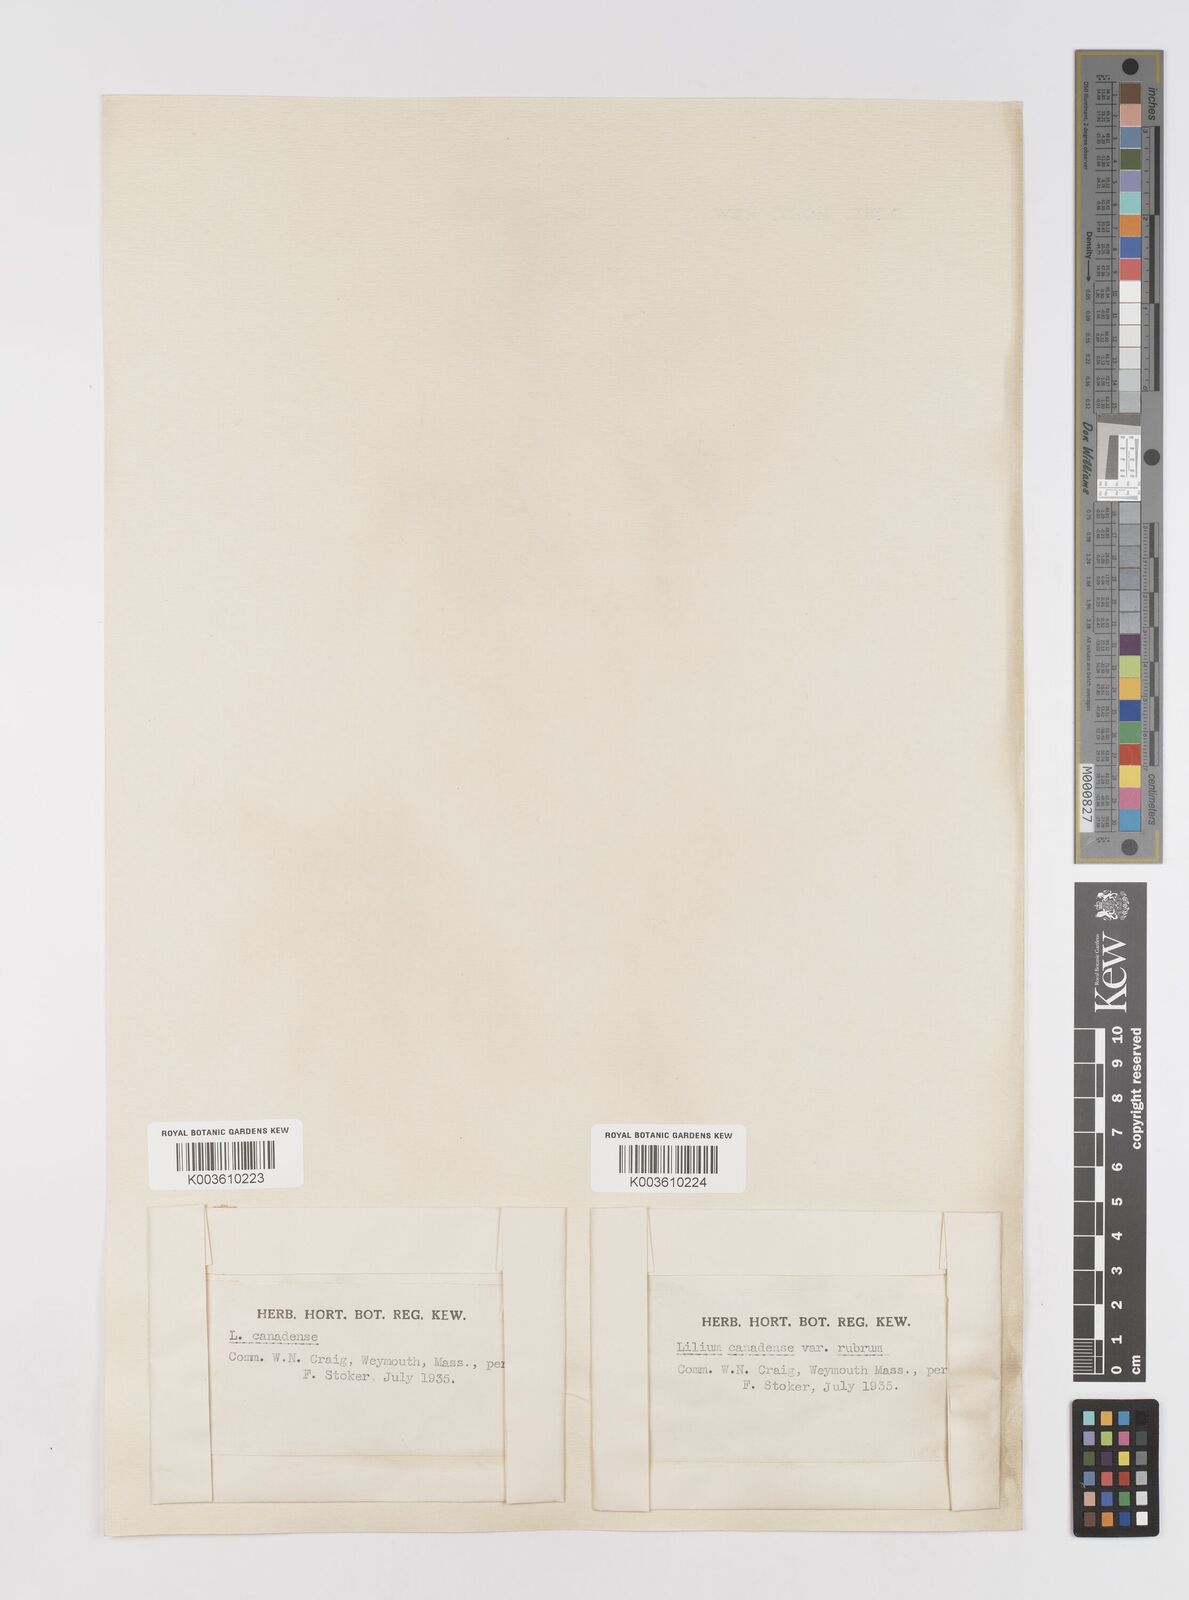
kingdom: Plantae
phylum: Tracheophyta
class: Liliopsida
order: Liliales
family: Liliaceae
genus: Lilium
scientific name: Lilium canadense
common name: Canada lily
